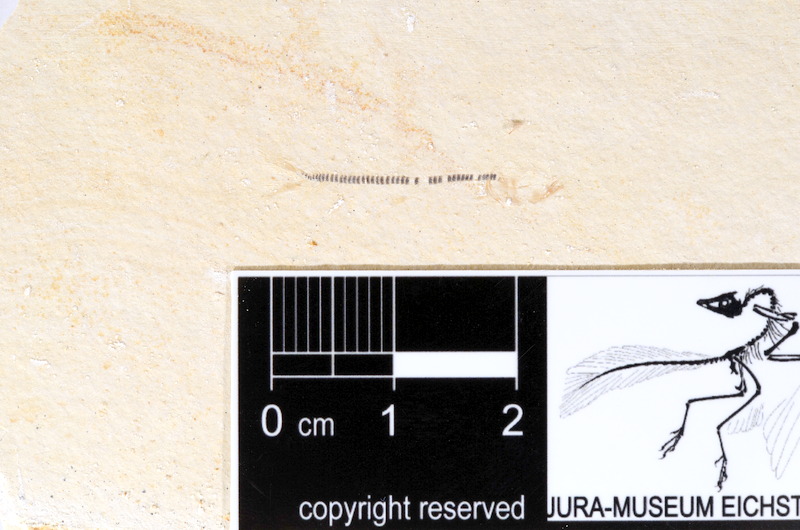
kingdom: Animalia
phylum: Chordata
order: Salmoniformes
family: Orthogonikleithridae
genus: Orthogonikleithrus
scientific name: Orthogonikleithrus hoelli
